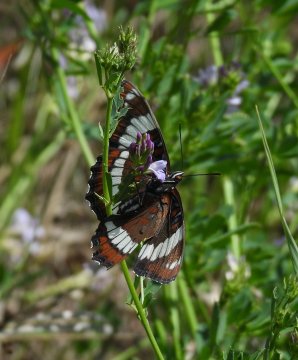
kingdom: Animalia
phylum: Arthropoda
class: Insecta
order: Lepidoptera
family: Nymphalidae
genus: Limenitis
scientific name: Limenitis arthemis
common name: Red-spotted Admiral
